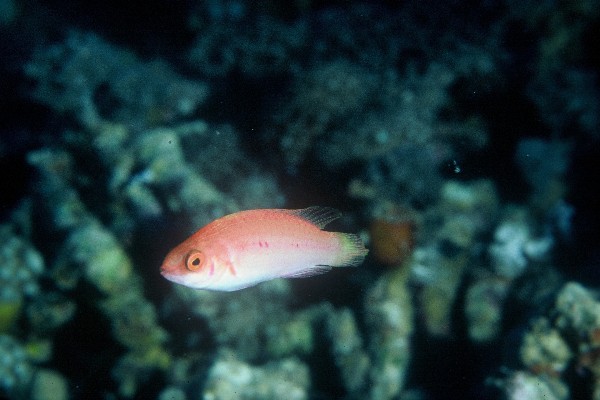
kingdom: Animalia
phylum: Chordata
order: Perciformes
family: Labridae
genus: Cirrhilabrus
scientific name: Cirrhilabrus blatteus
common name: Purple-boned wrasse
